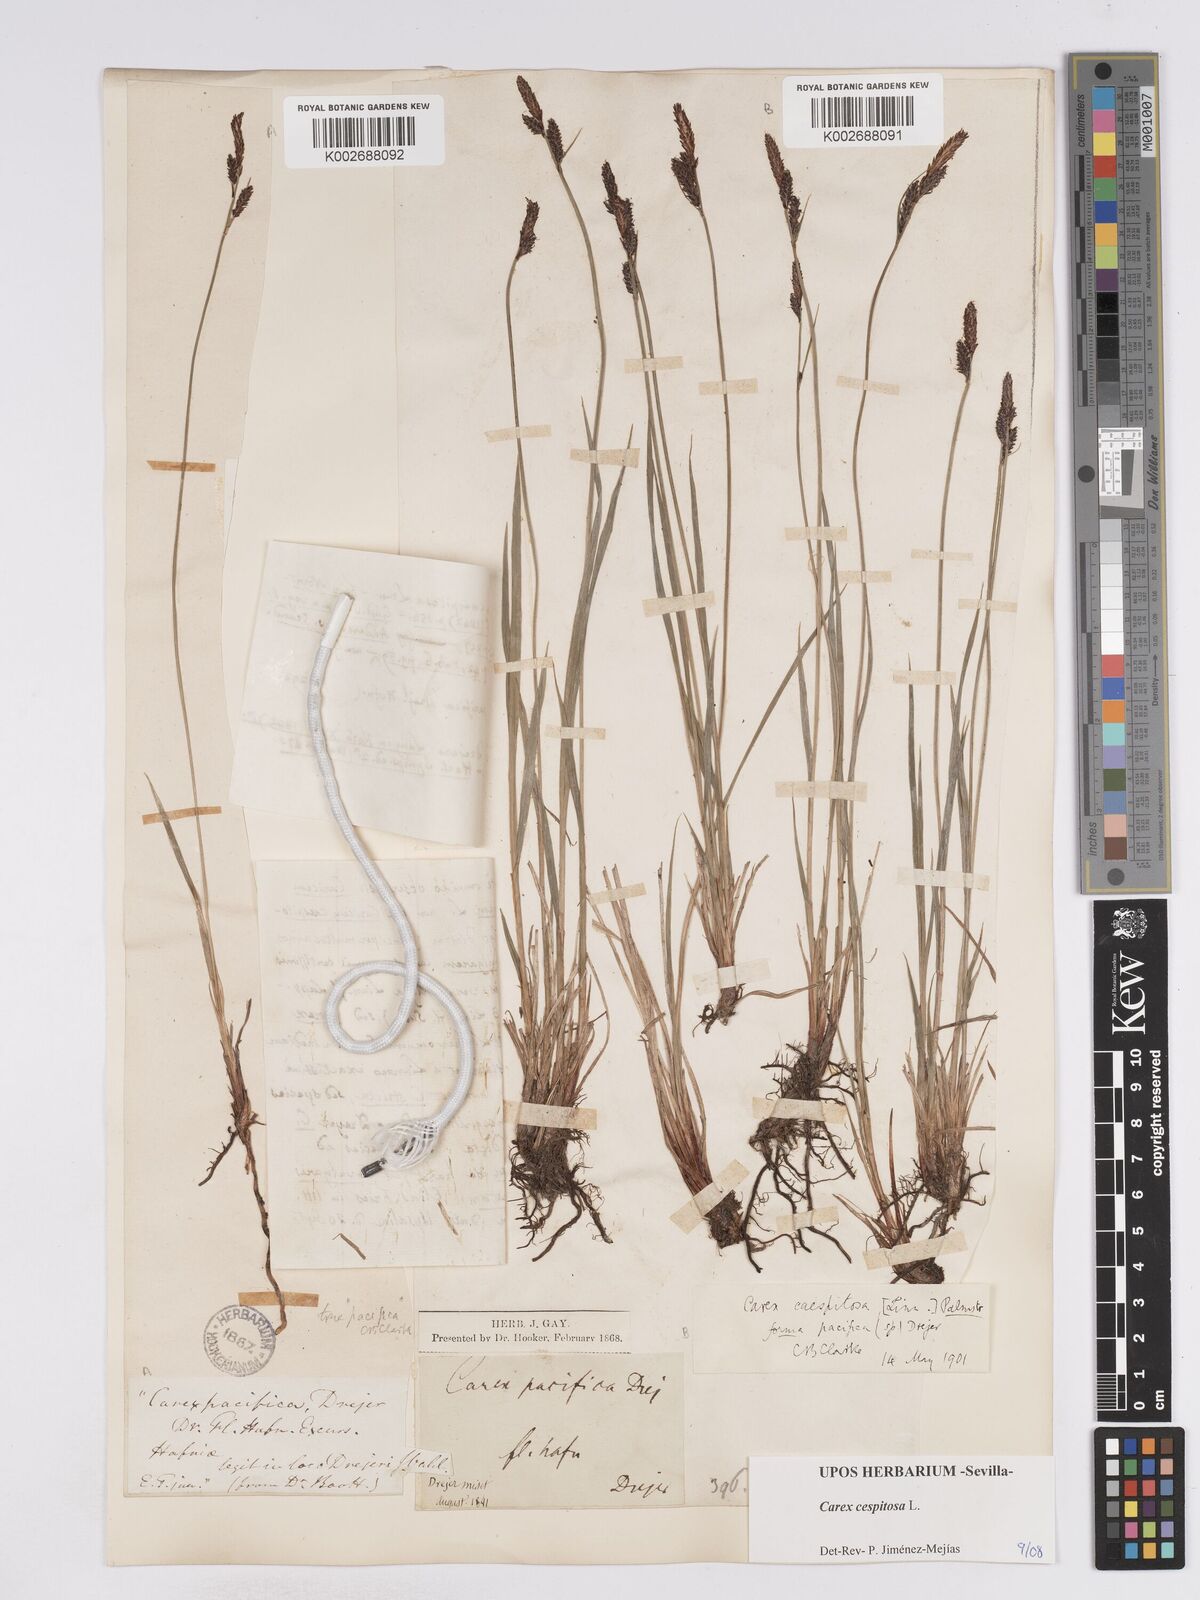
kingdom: Plantae
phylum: Tracheophyta
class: Liliopsida
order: Poales
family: Cyperaceae
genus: Carex
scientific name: Carex
